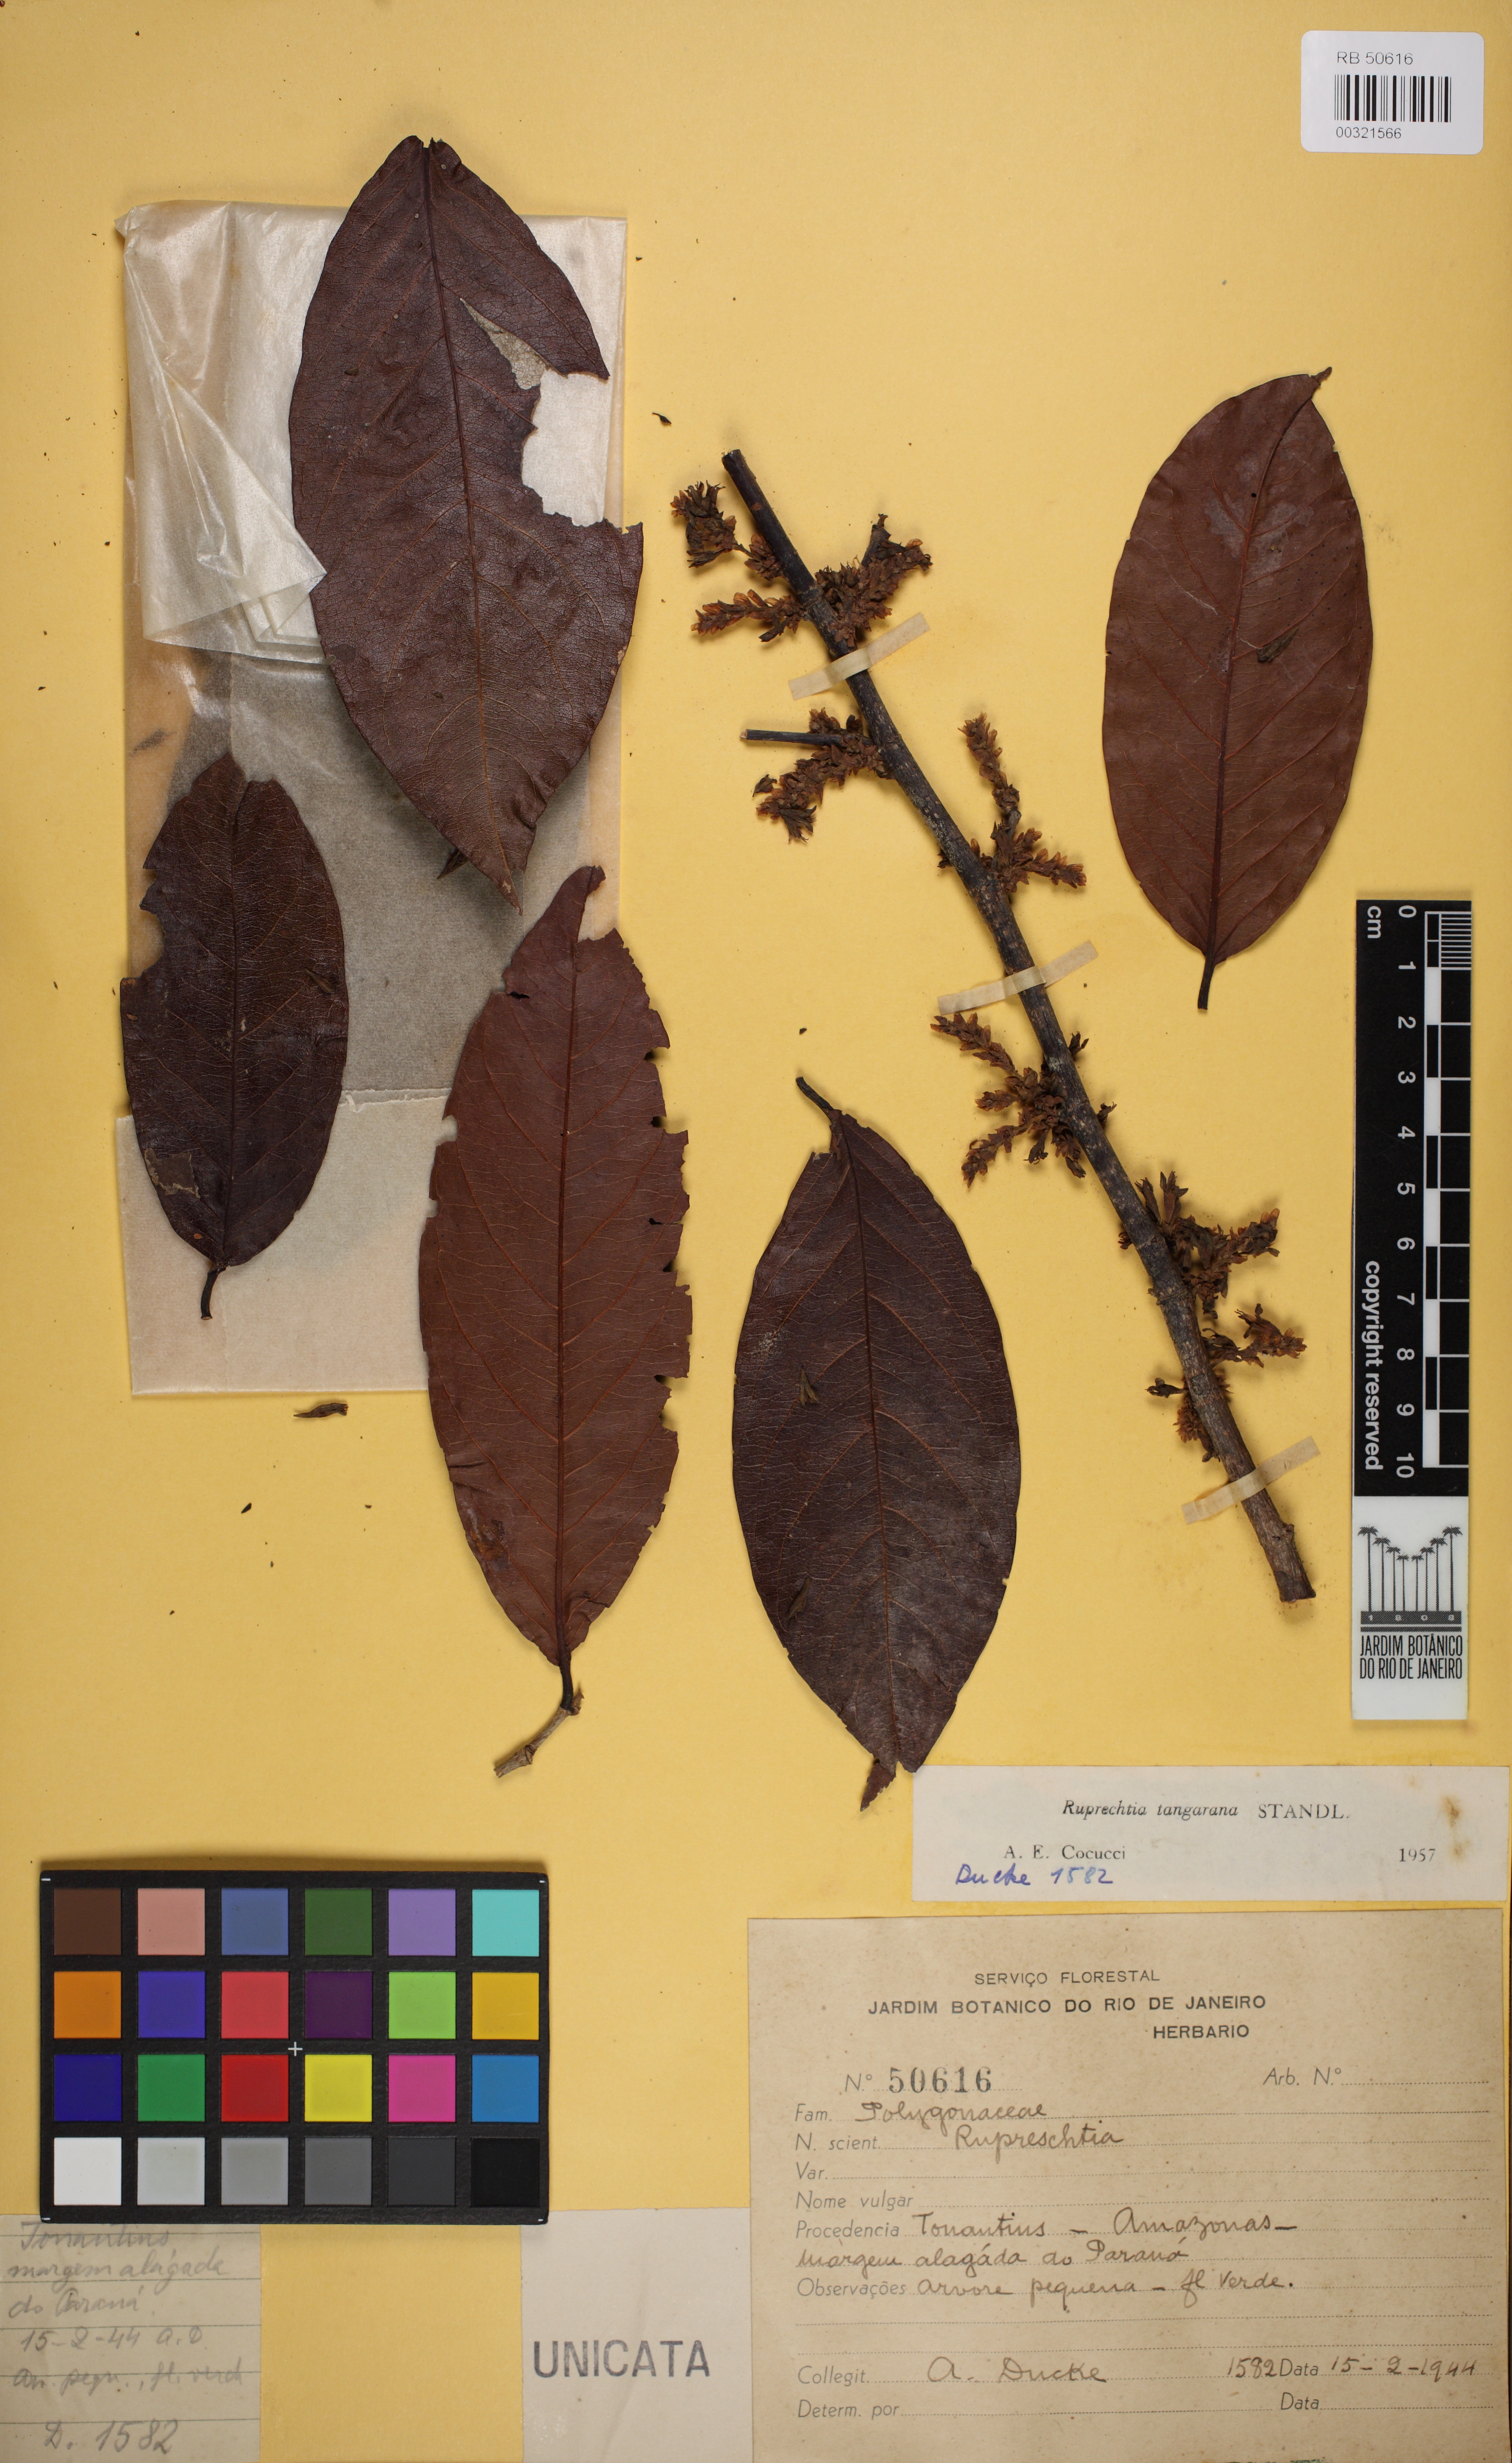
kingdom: Plantae
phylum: Tracheophyta
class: Magnoliopsida
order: Caryophyllales
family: Polygonaceae
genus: Ruprechtia
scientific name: Ruprechtia tangarana
